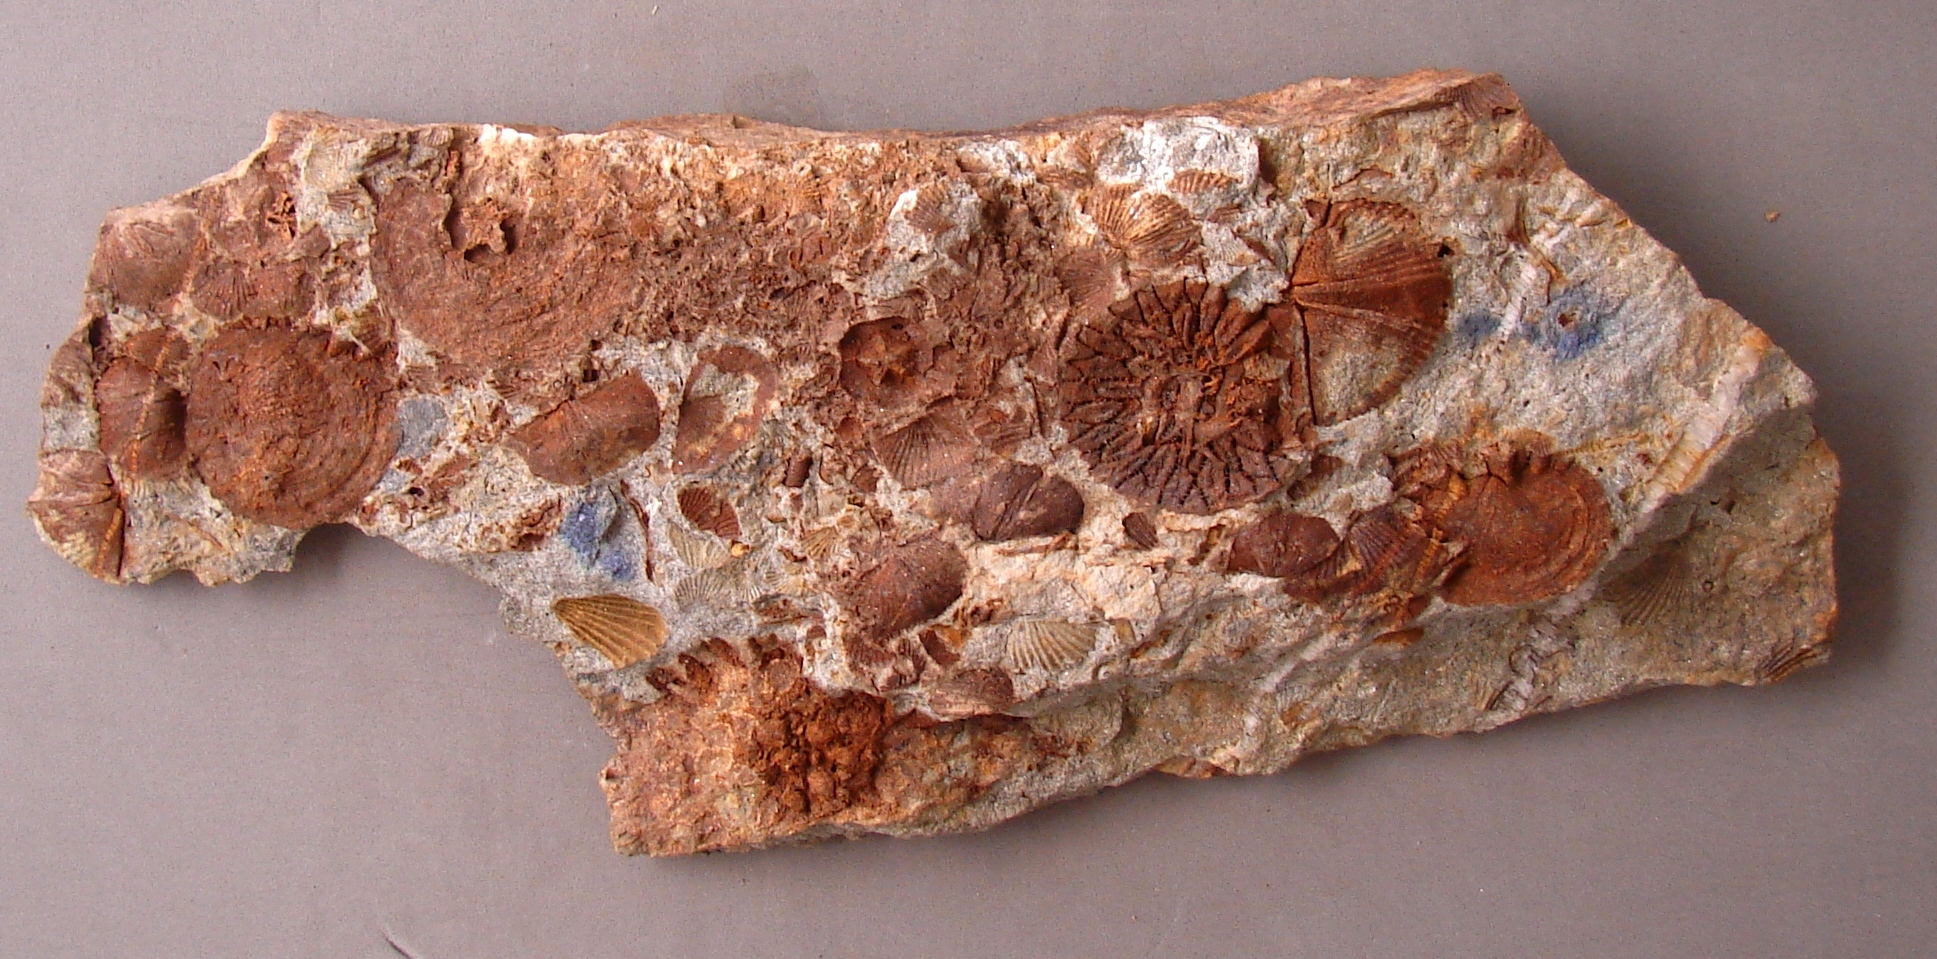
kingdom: Animalia
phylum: Brachiopoda
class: Rhynchonellata
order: Rhynchonellida
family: Trigonirhynchiidae
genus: Oligoptycherhynchus
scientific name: Oligoptycherhynchus
